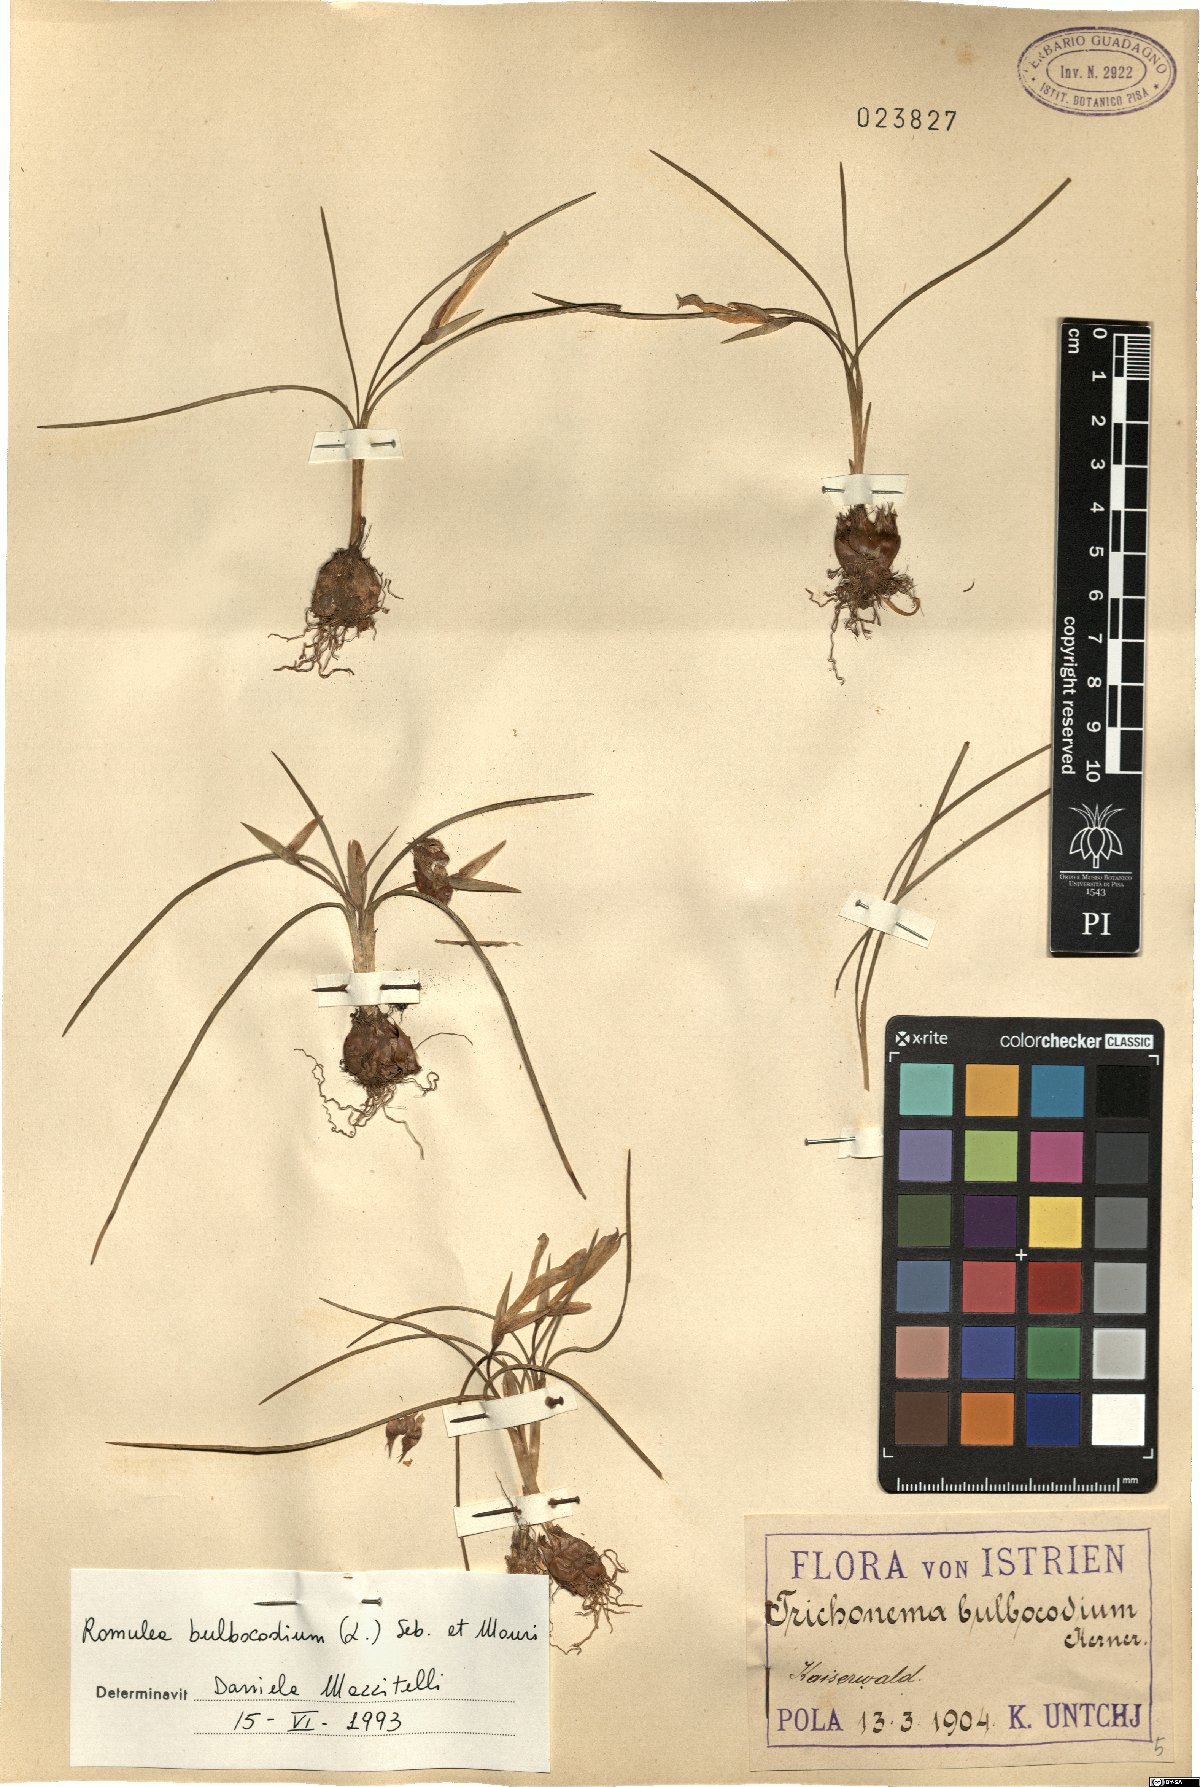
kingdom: Plantae
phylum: Tracheophyta
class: Liliopsida
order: Asparagales
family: Iridaceae
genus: Romulea
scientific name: Romulea bulbocodium
